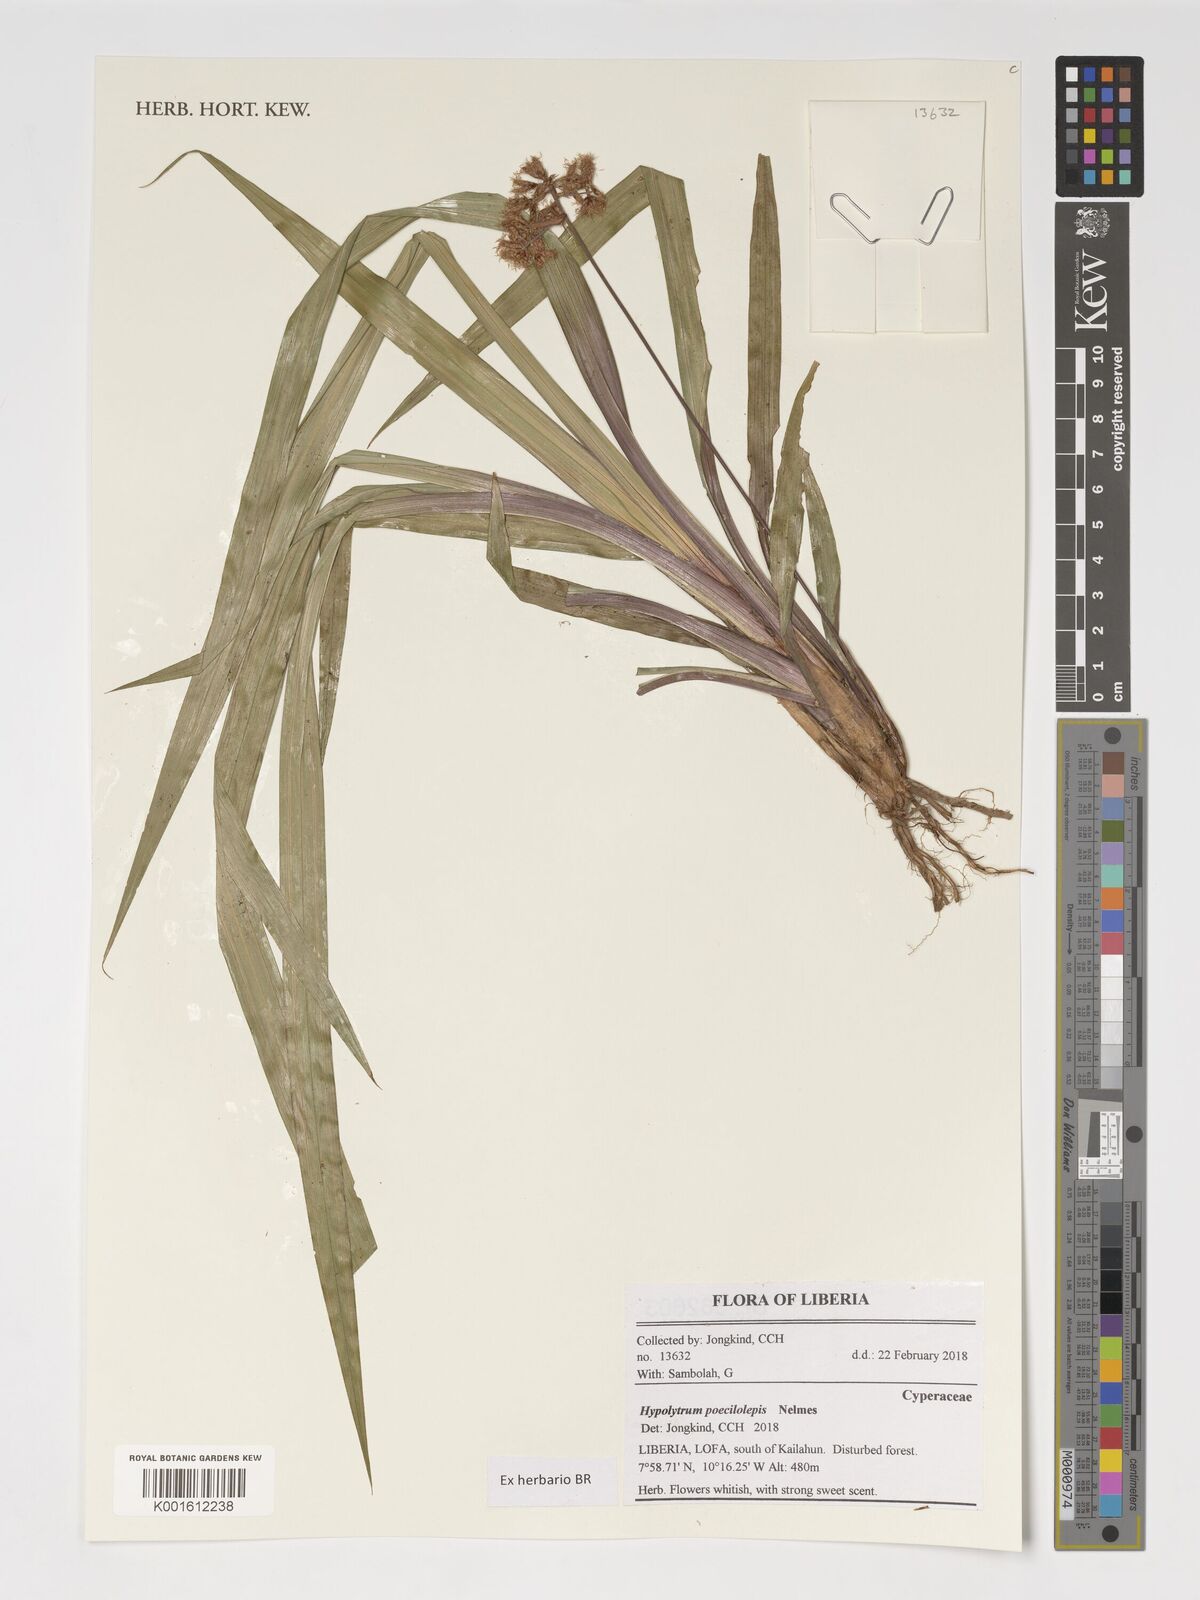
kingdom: Plantae
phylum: Tracheophyta
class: Liliopsida
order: Poales
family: Cyperaceae
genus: Hypolytrum
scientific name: Hypolytrum poecilolepis
